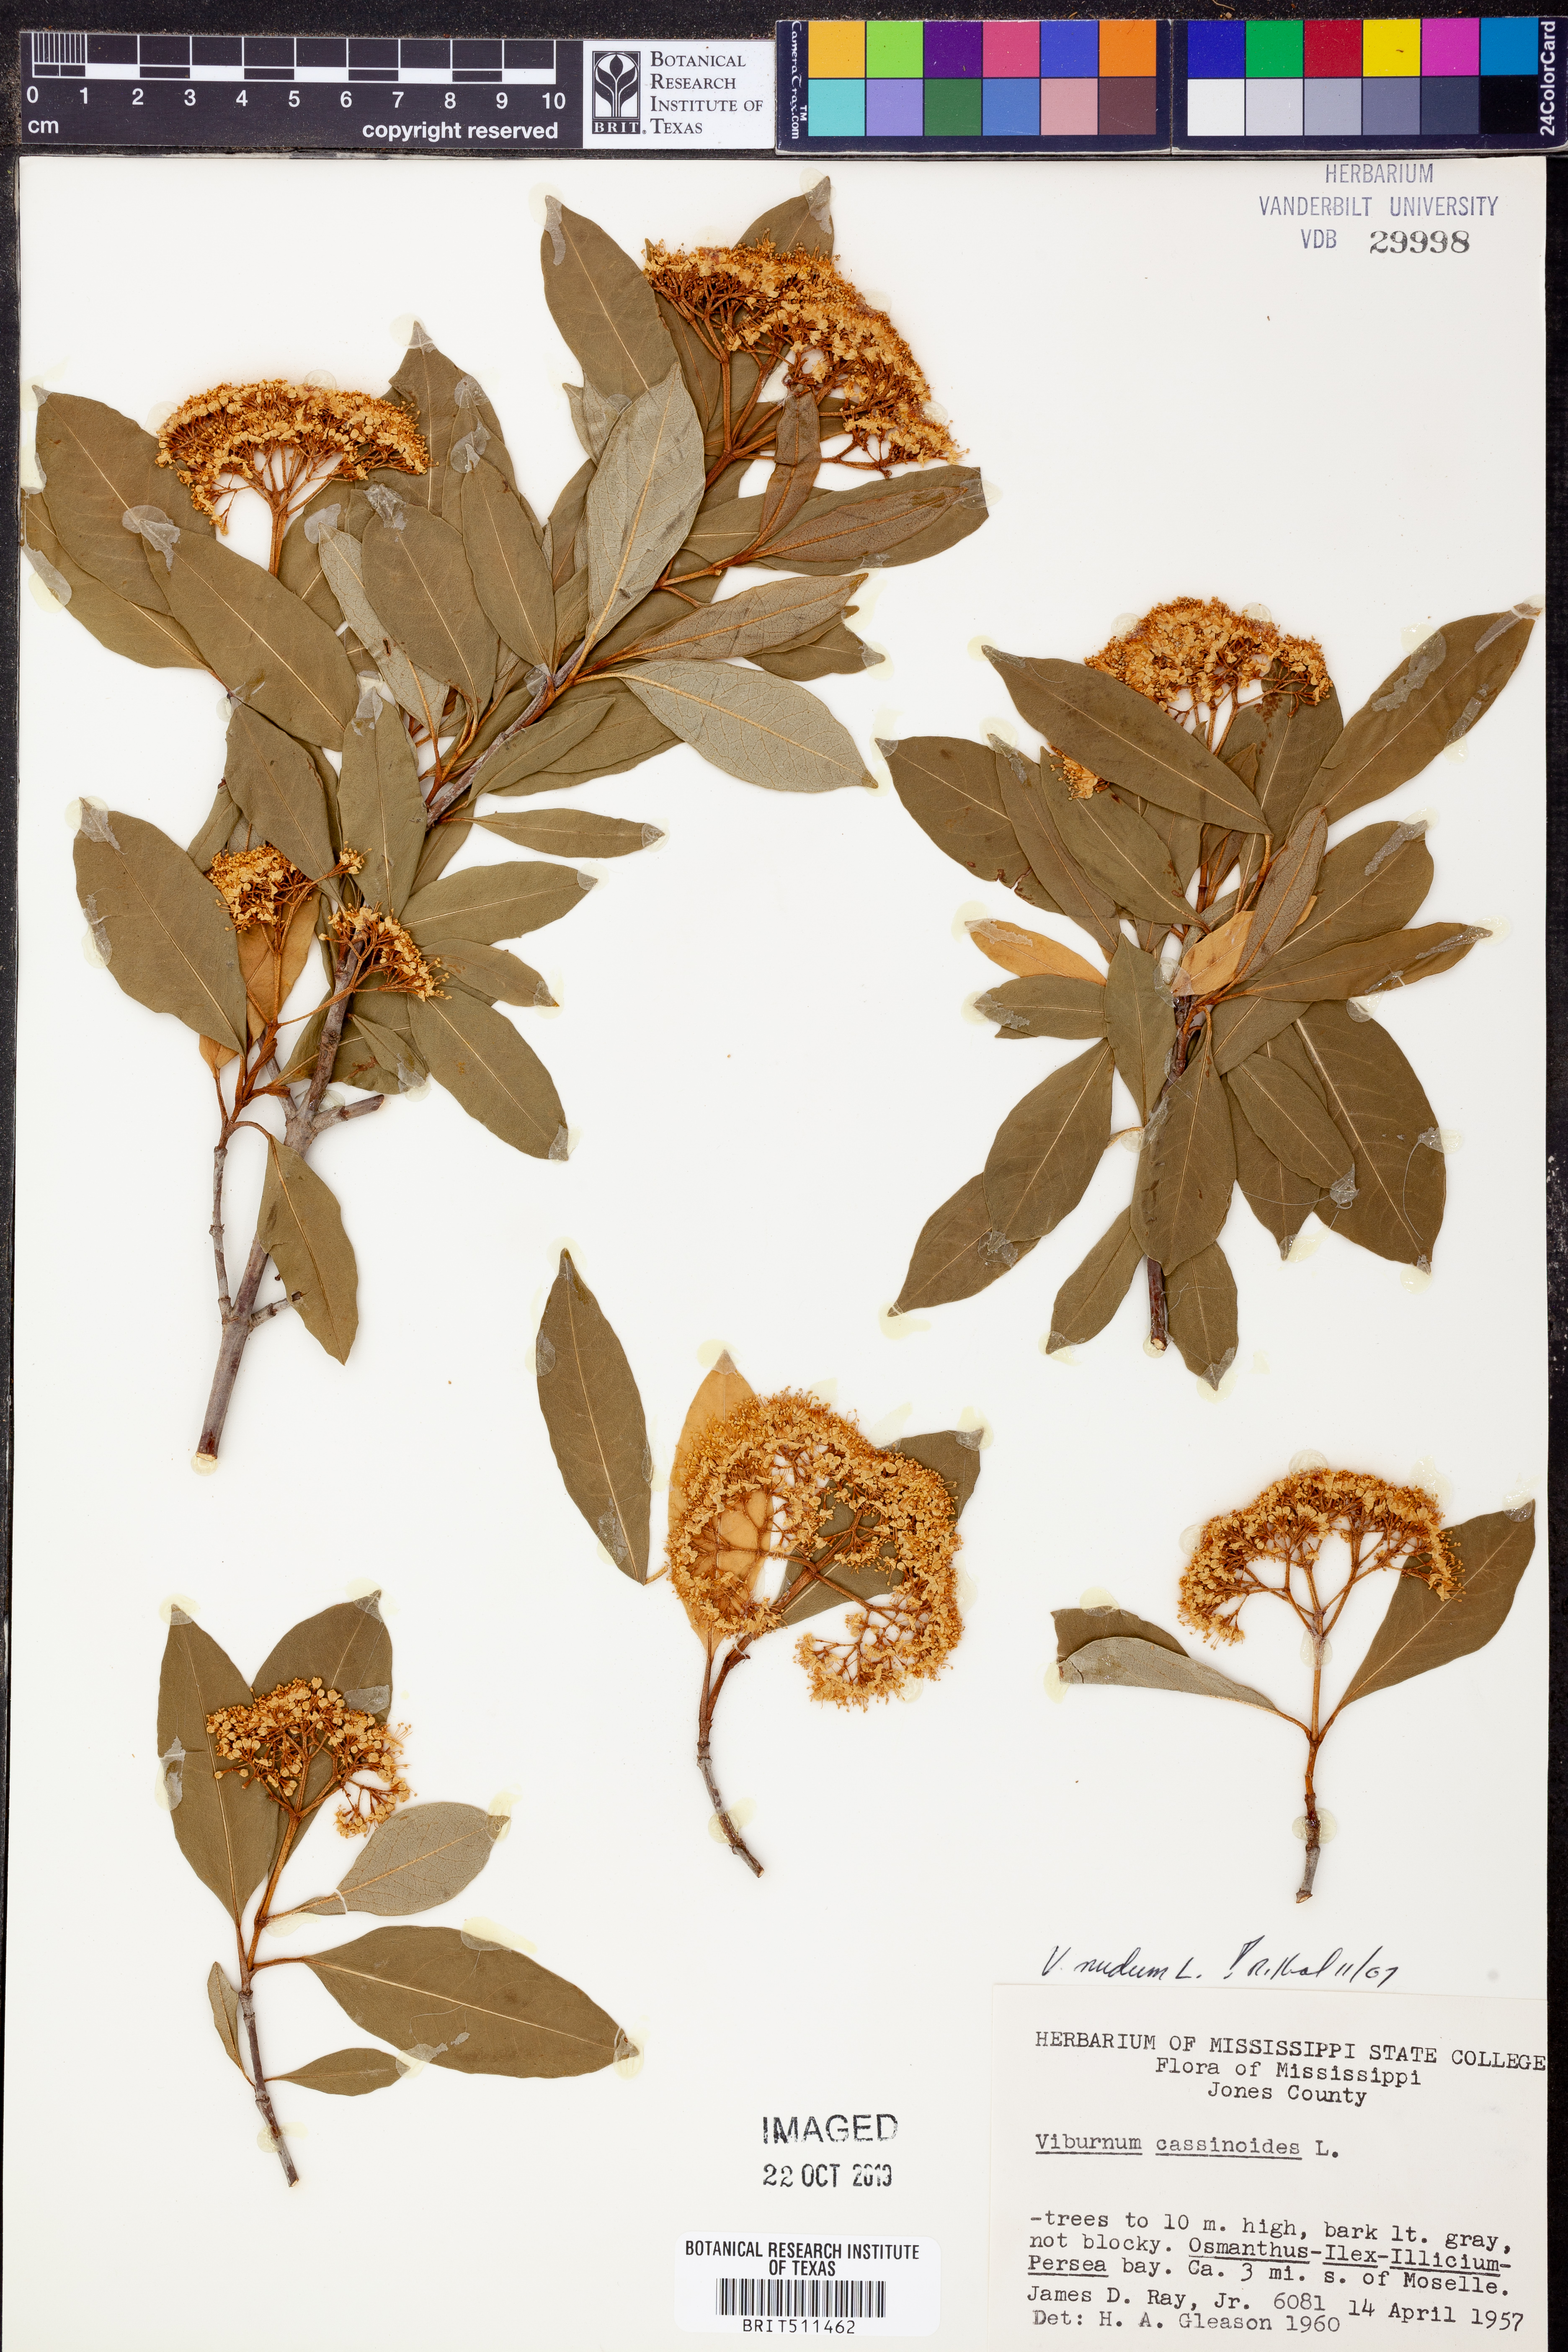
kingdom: Plantae
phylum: Tracheophyta
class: Magnoliopsida
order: Dipsacales
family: Viburnaceae
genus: Viburnum
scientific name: Viburnum nudum
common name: Possum haw
